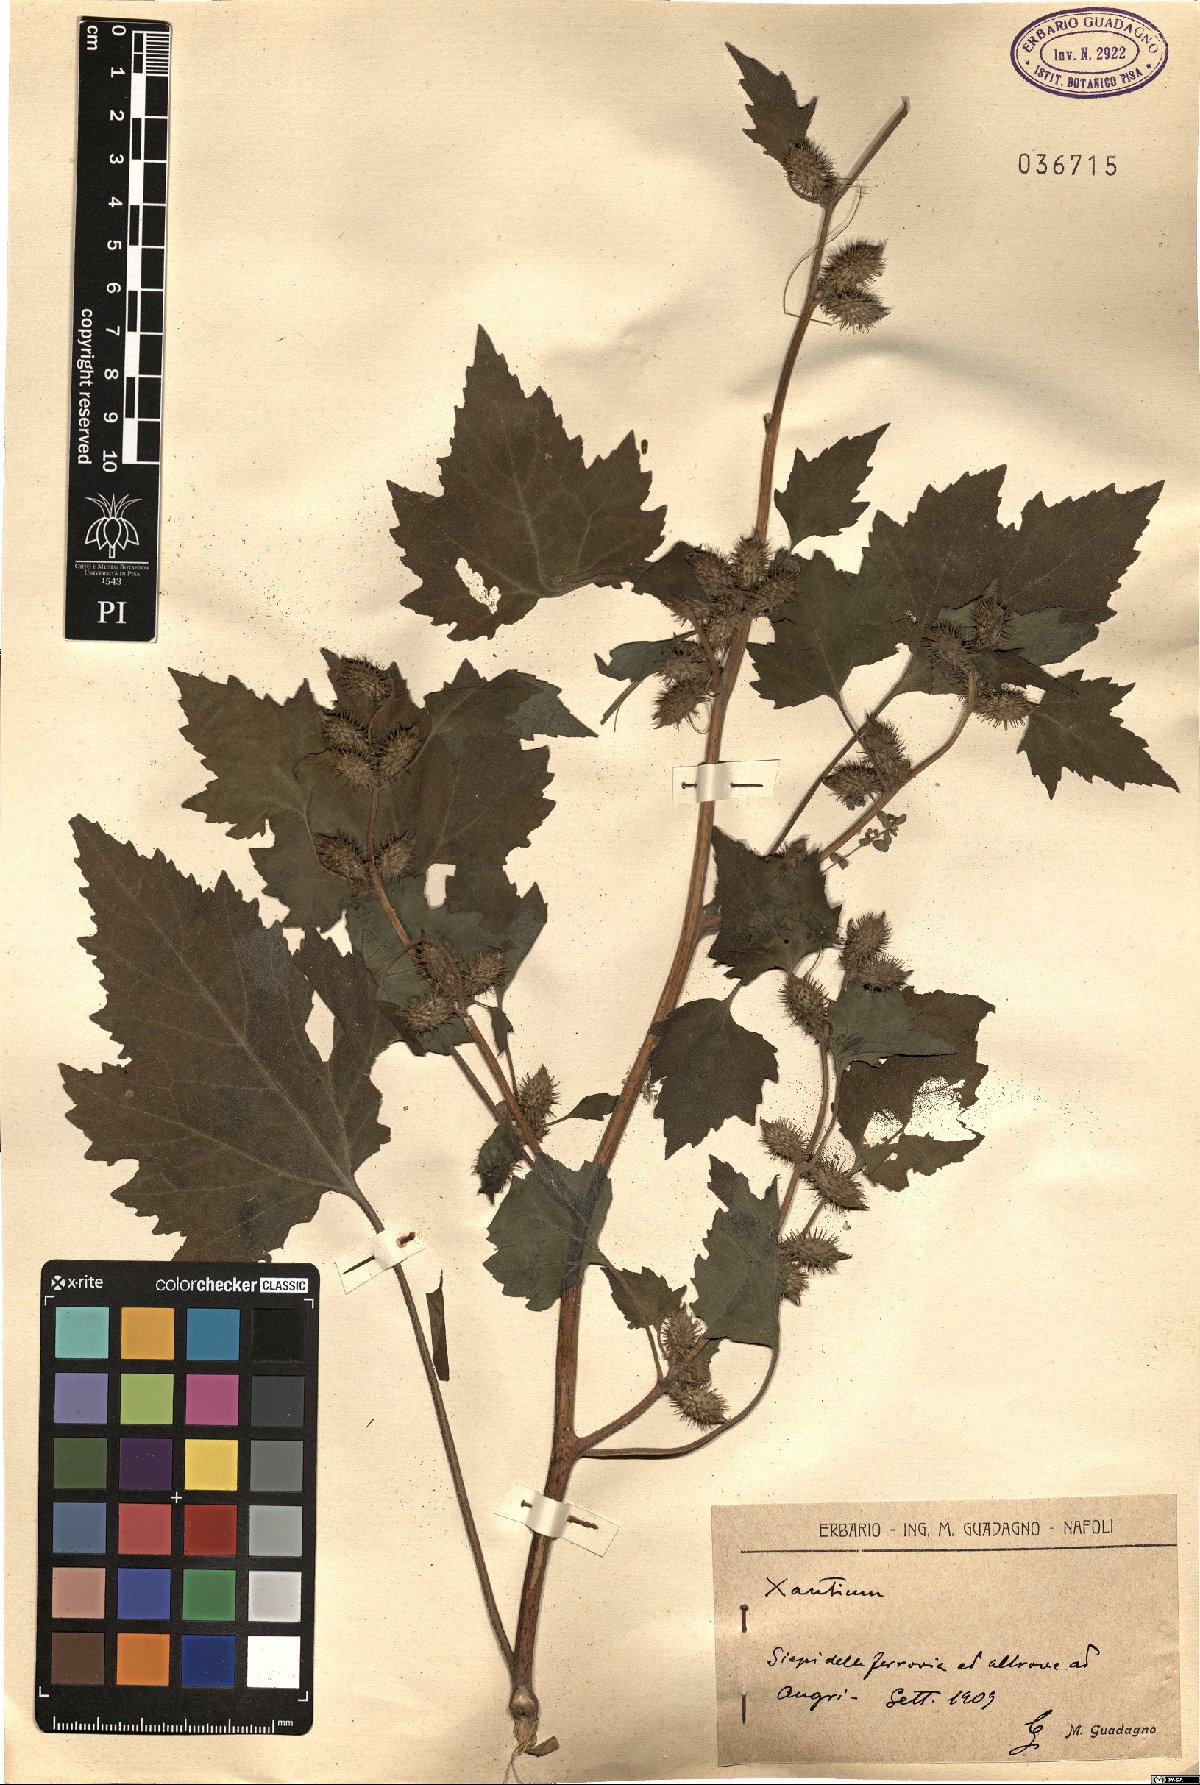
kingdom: Plantae
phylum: Tracheophyta
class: Magnoliopsida
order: Asterales
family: Asteraceae
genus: Xanthium
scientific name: Xanthium
